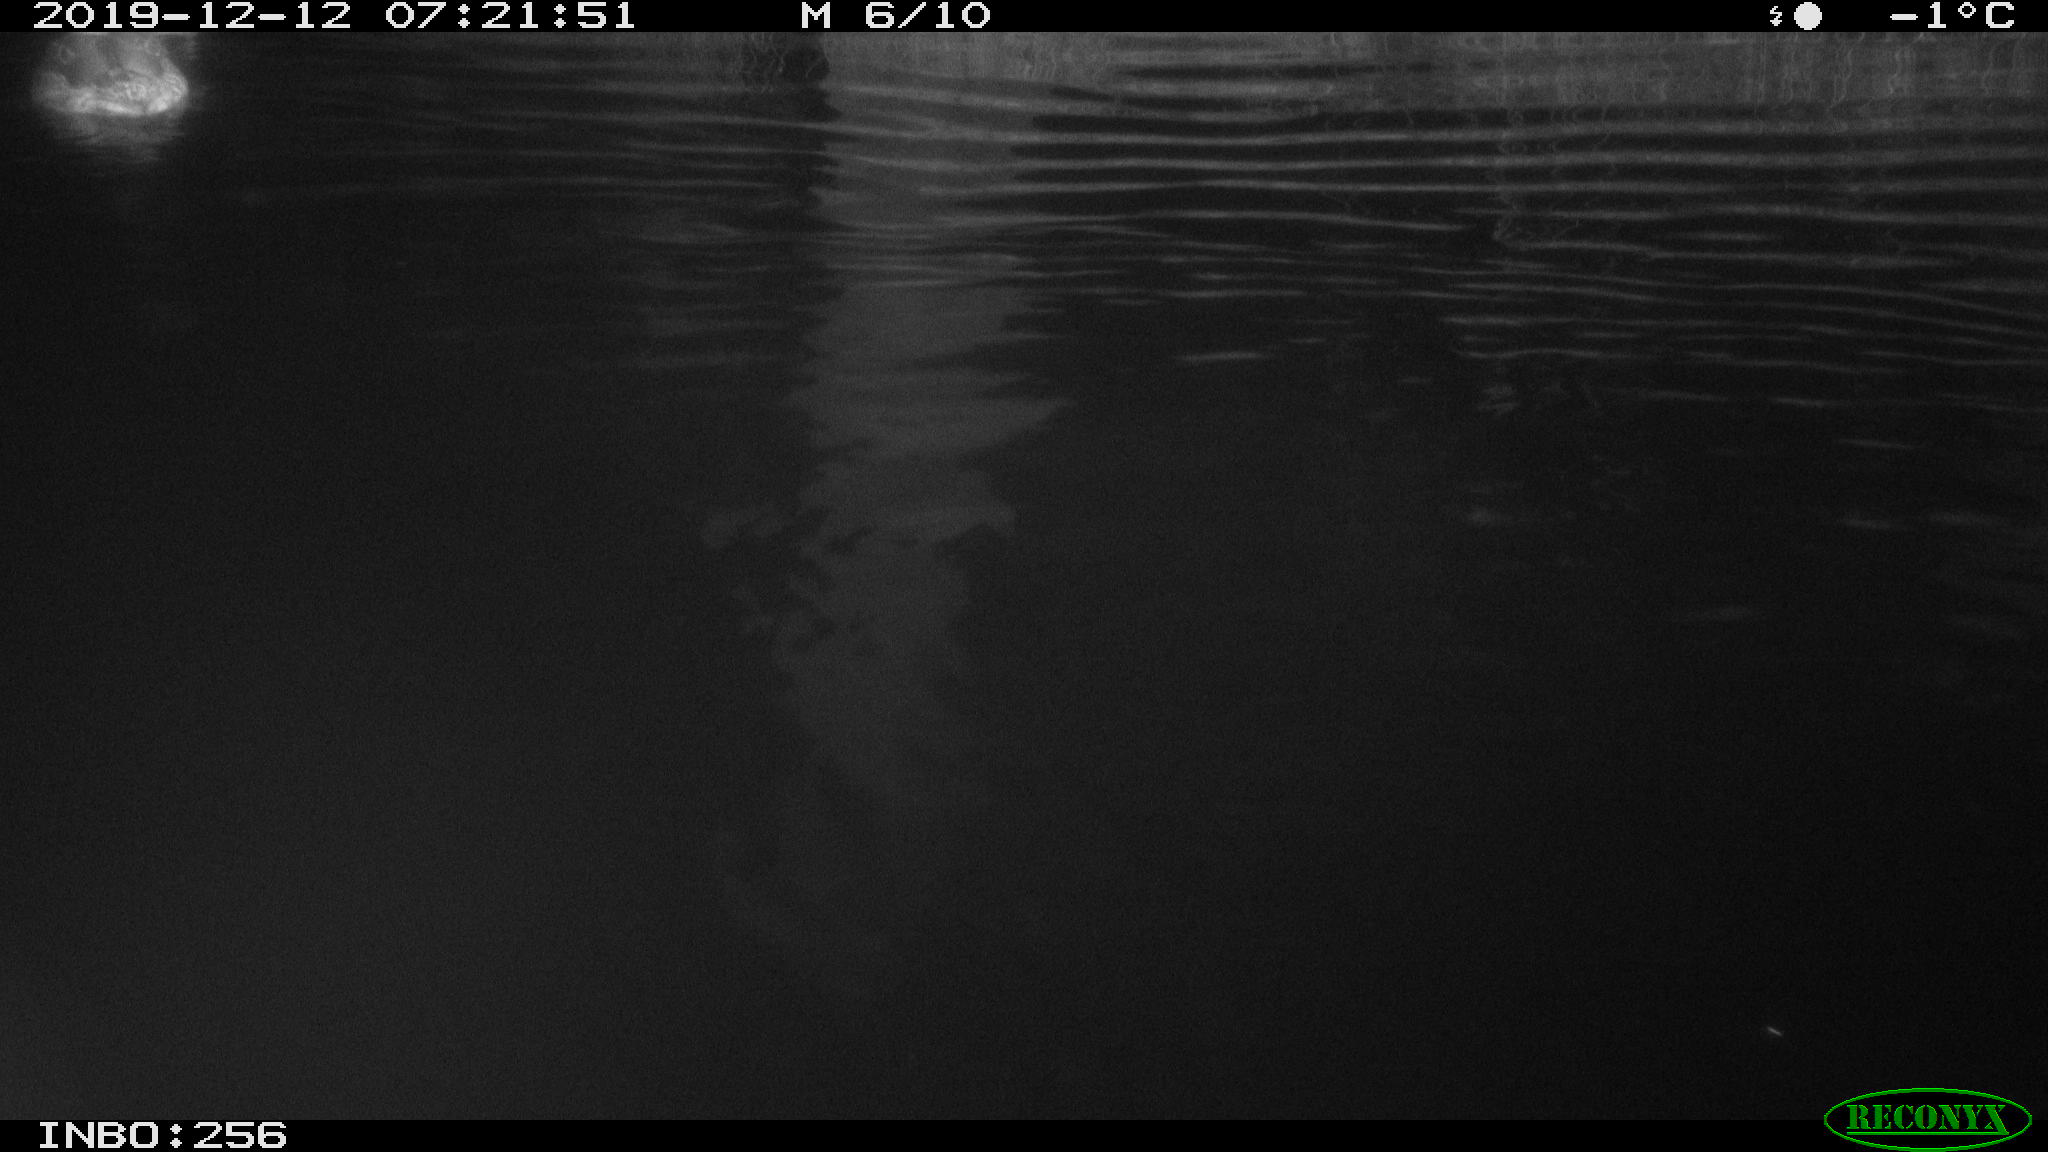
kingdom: Animalia
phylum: Chordata
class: Aves
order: Anseriformes
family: Anatidae
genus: Anas
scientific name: Anas platyrhynchos
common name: Mallard
